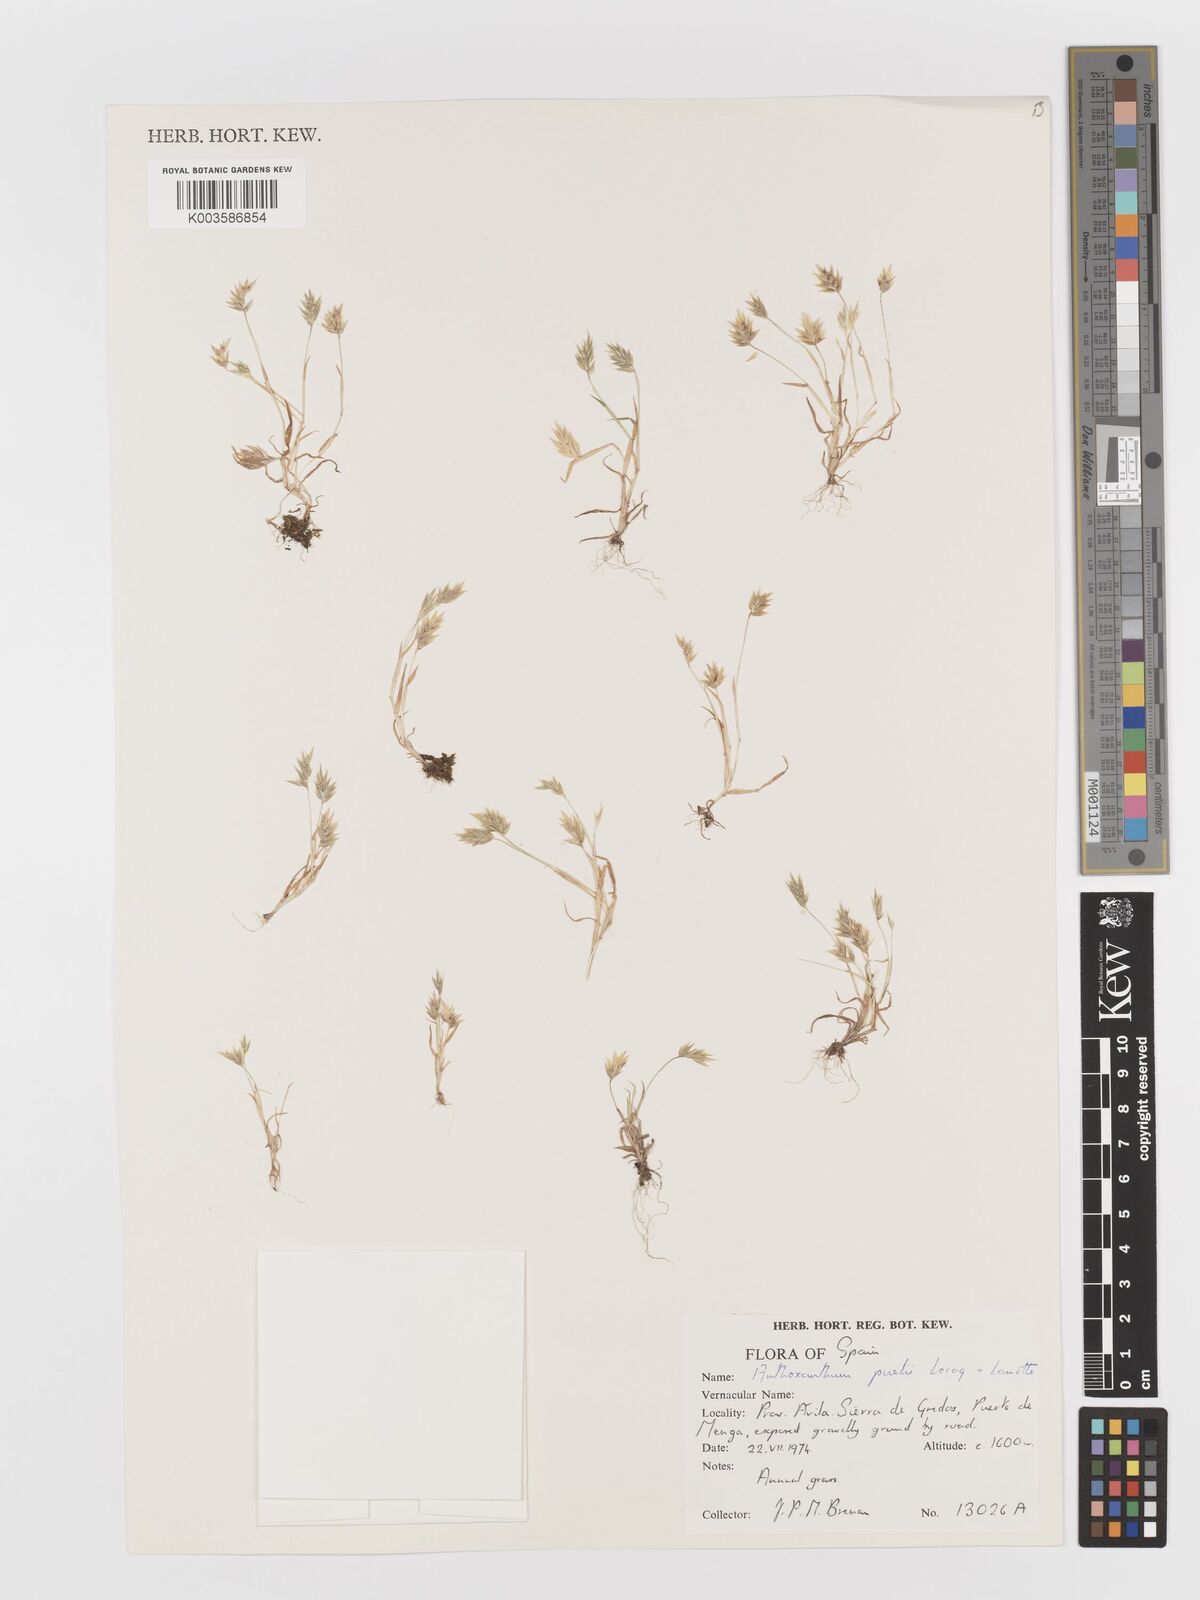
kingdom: Plantae
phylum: Tracheophyta
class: Liliopsida
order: Poales
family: Poaceae
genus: Anthoxanthum
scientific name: Anthoxanthum
